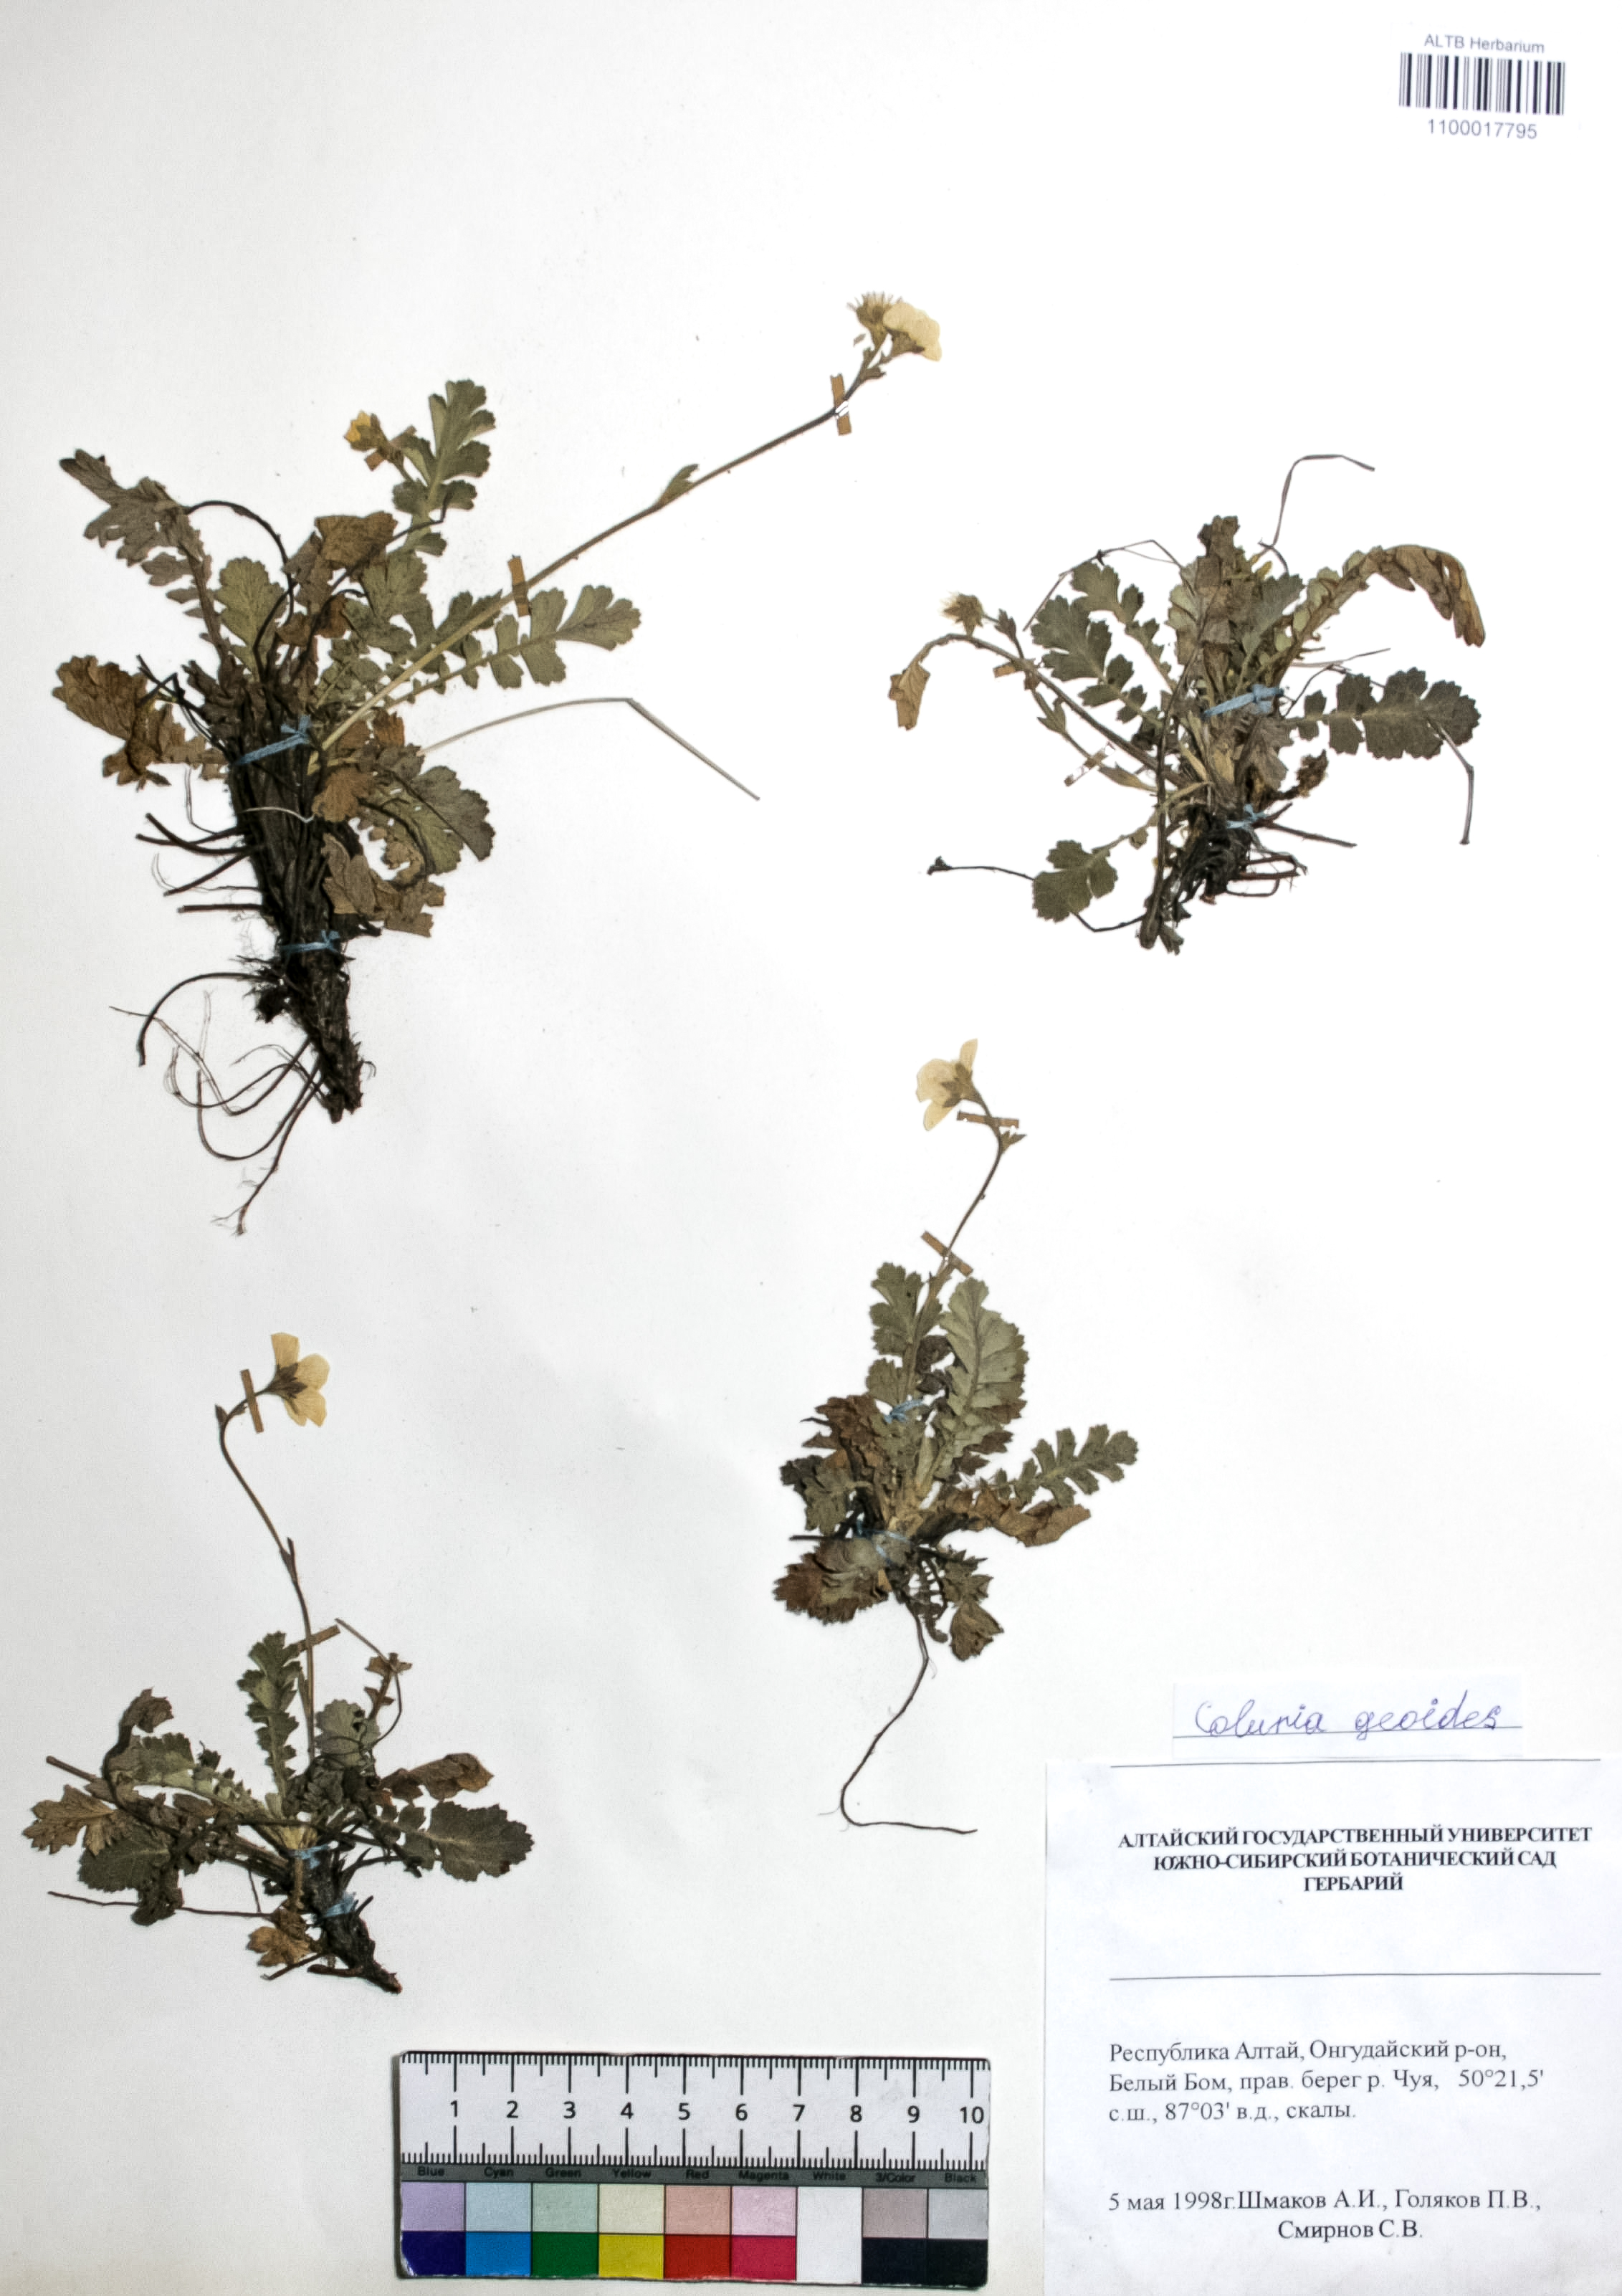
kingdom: Plantae
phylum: Tracheophyta
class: Magnoliopsida
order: Rosales
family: Rosaceae
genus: Geum
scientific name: Geum geoides
